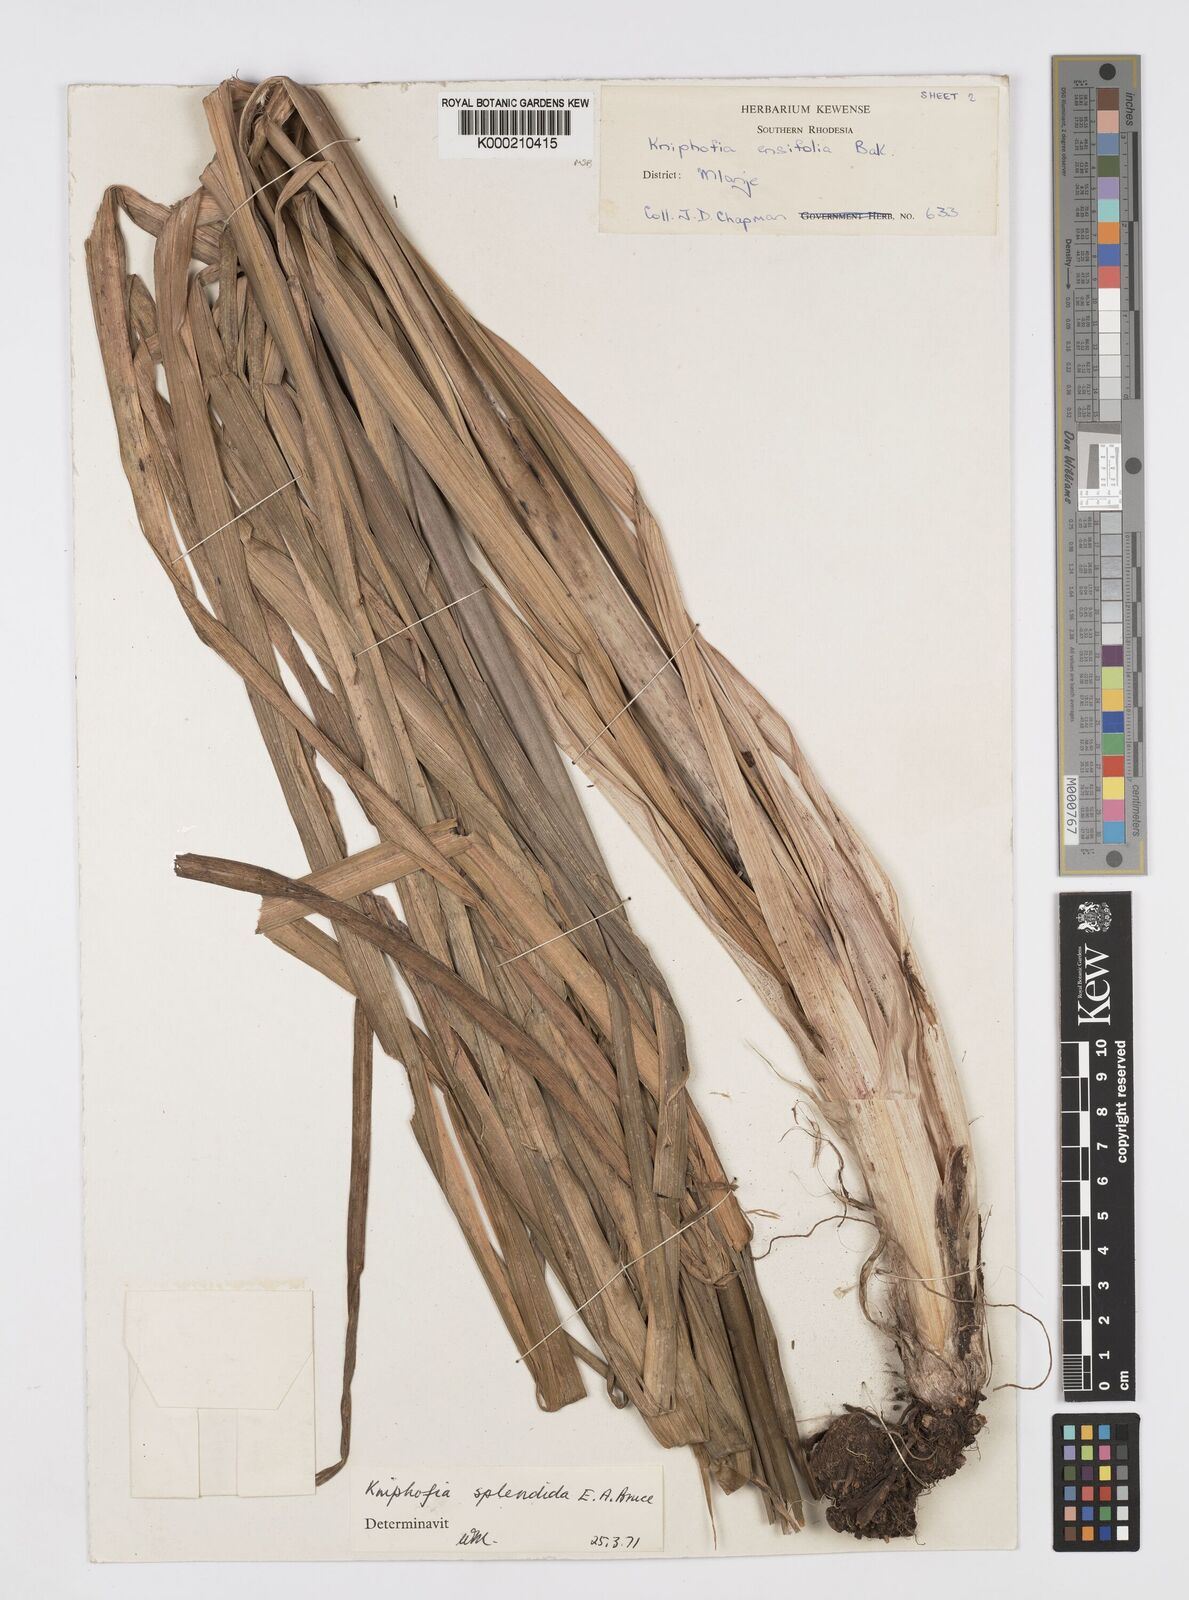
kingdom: Plantae
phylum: Tracheophyta
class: Liliopsida
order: Asparagales
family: Asphodelaceae
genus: Kniphofia
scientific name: Kniphofia splendida
